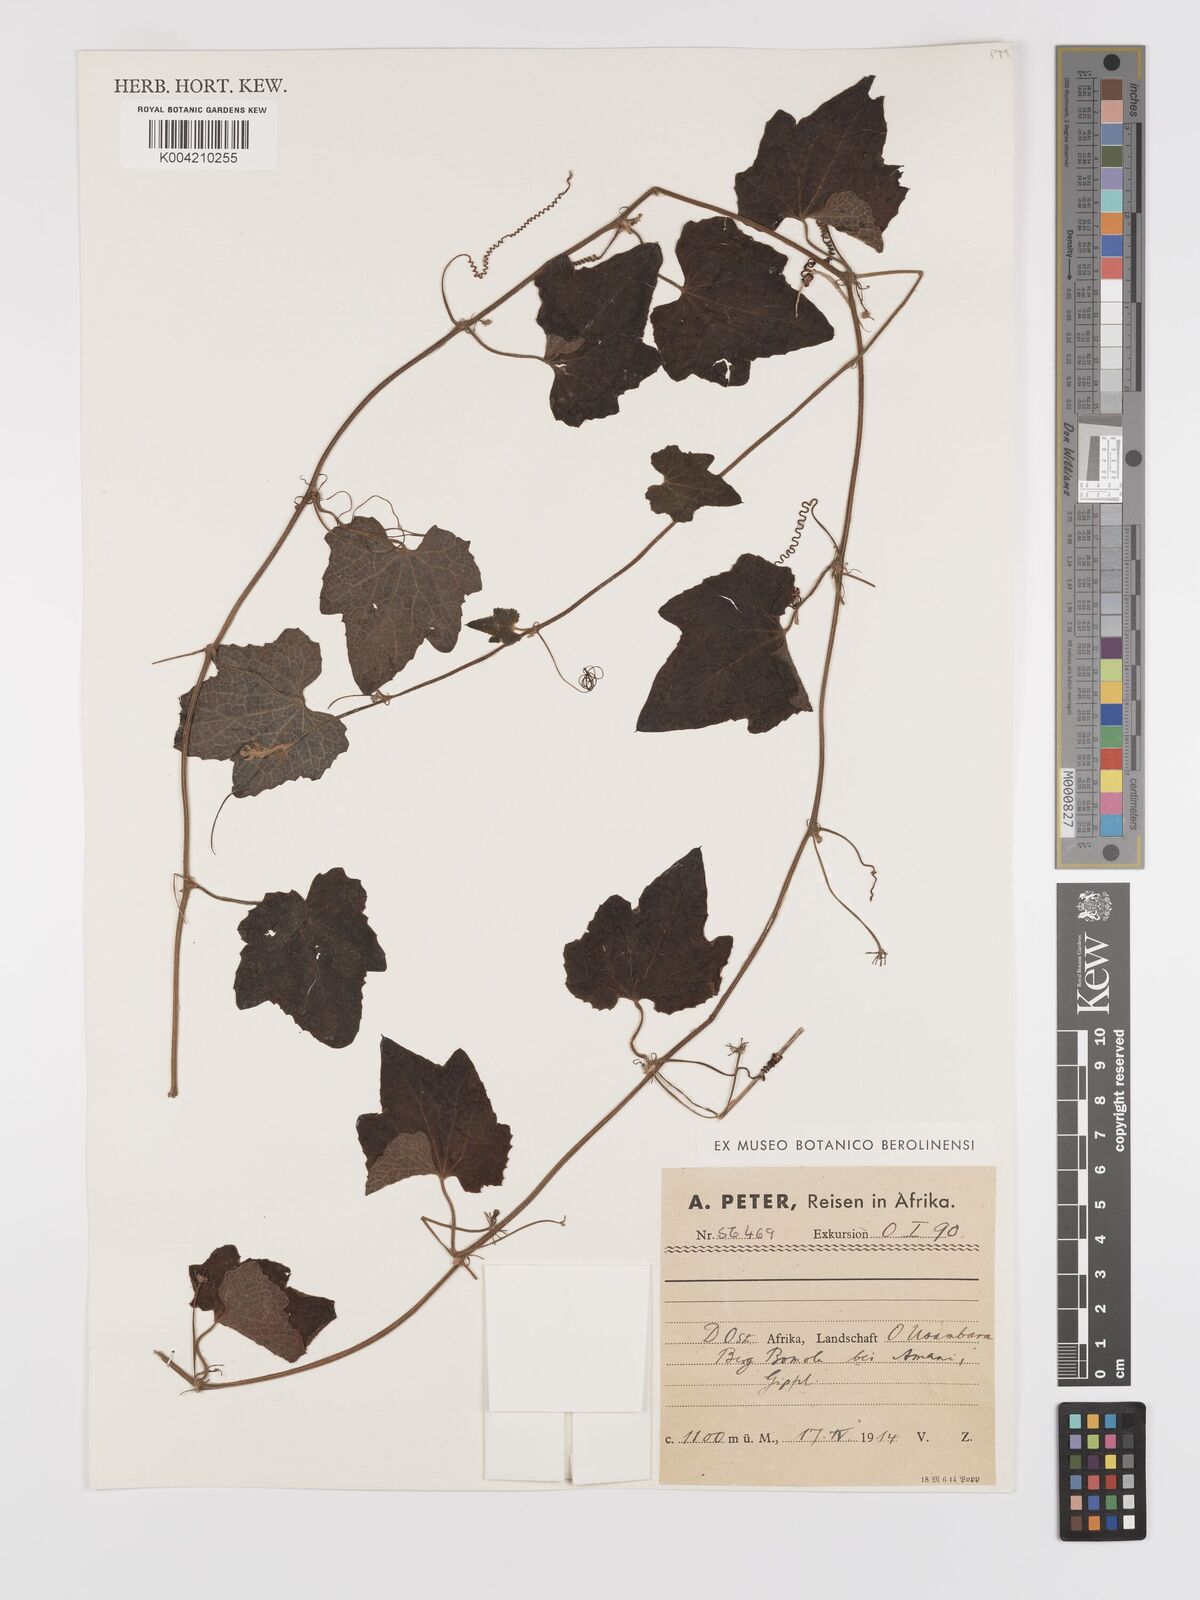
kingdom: Plantae
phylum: Tracheophyta
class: Magnoliopsida
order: Cucurbitales
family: Cucurbitaceae
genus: Zehneria
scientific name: Zehneria scabra
